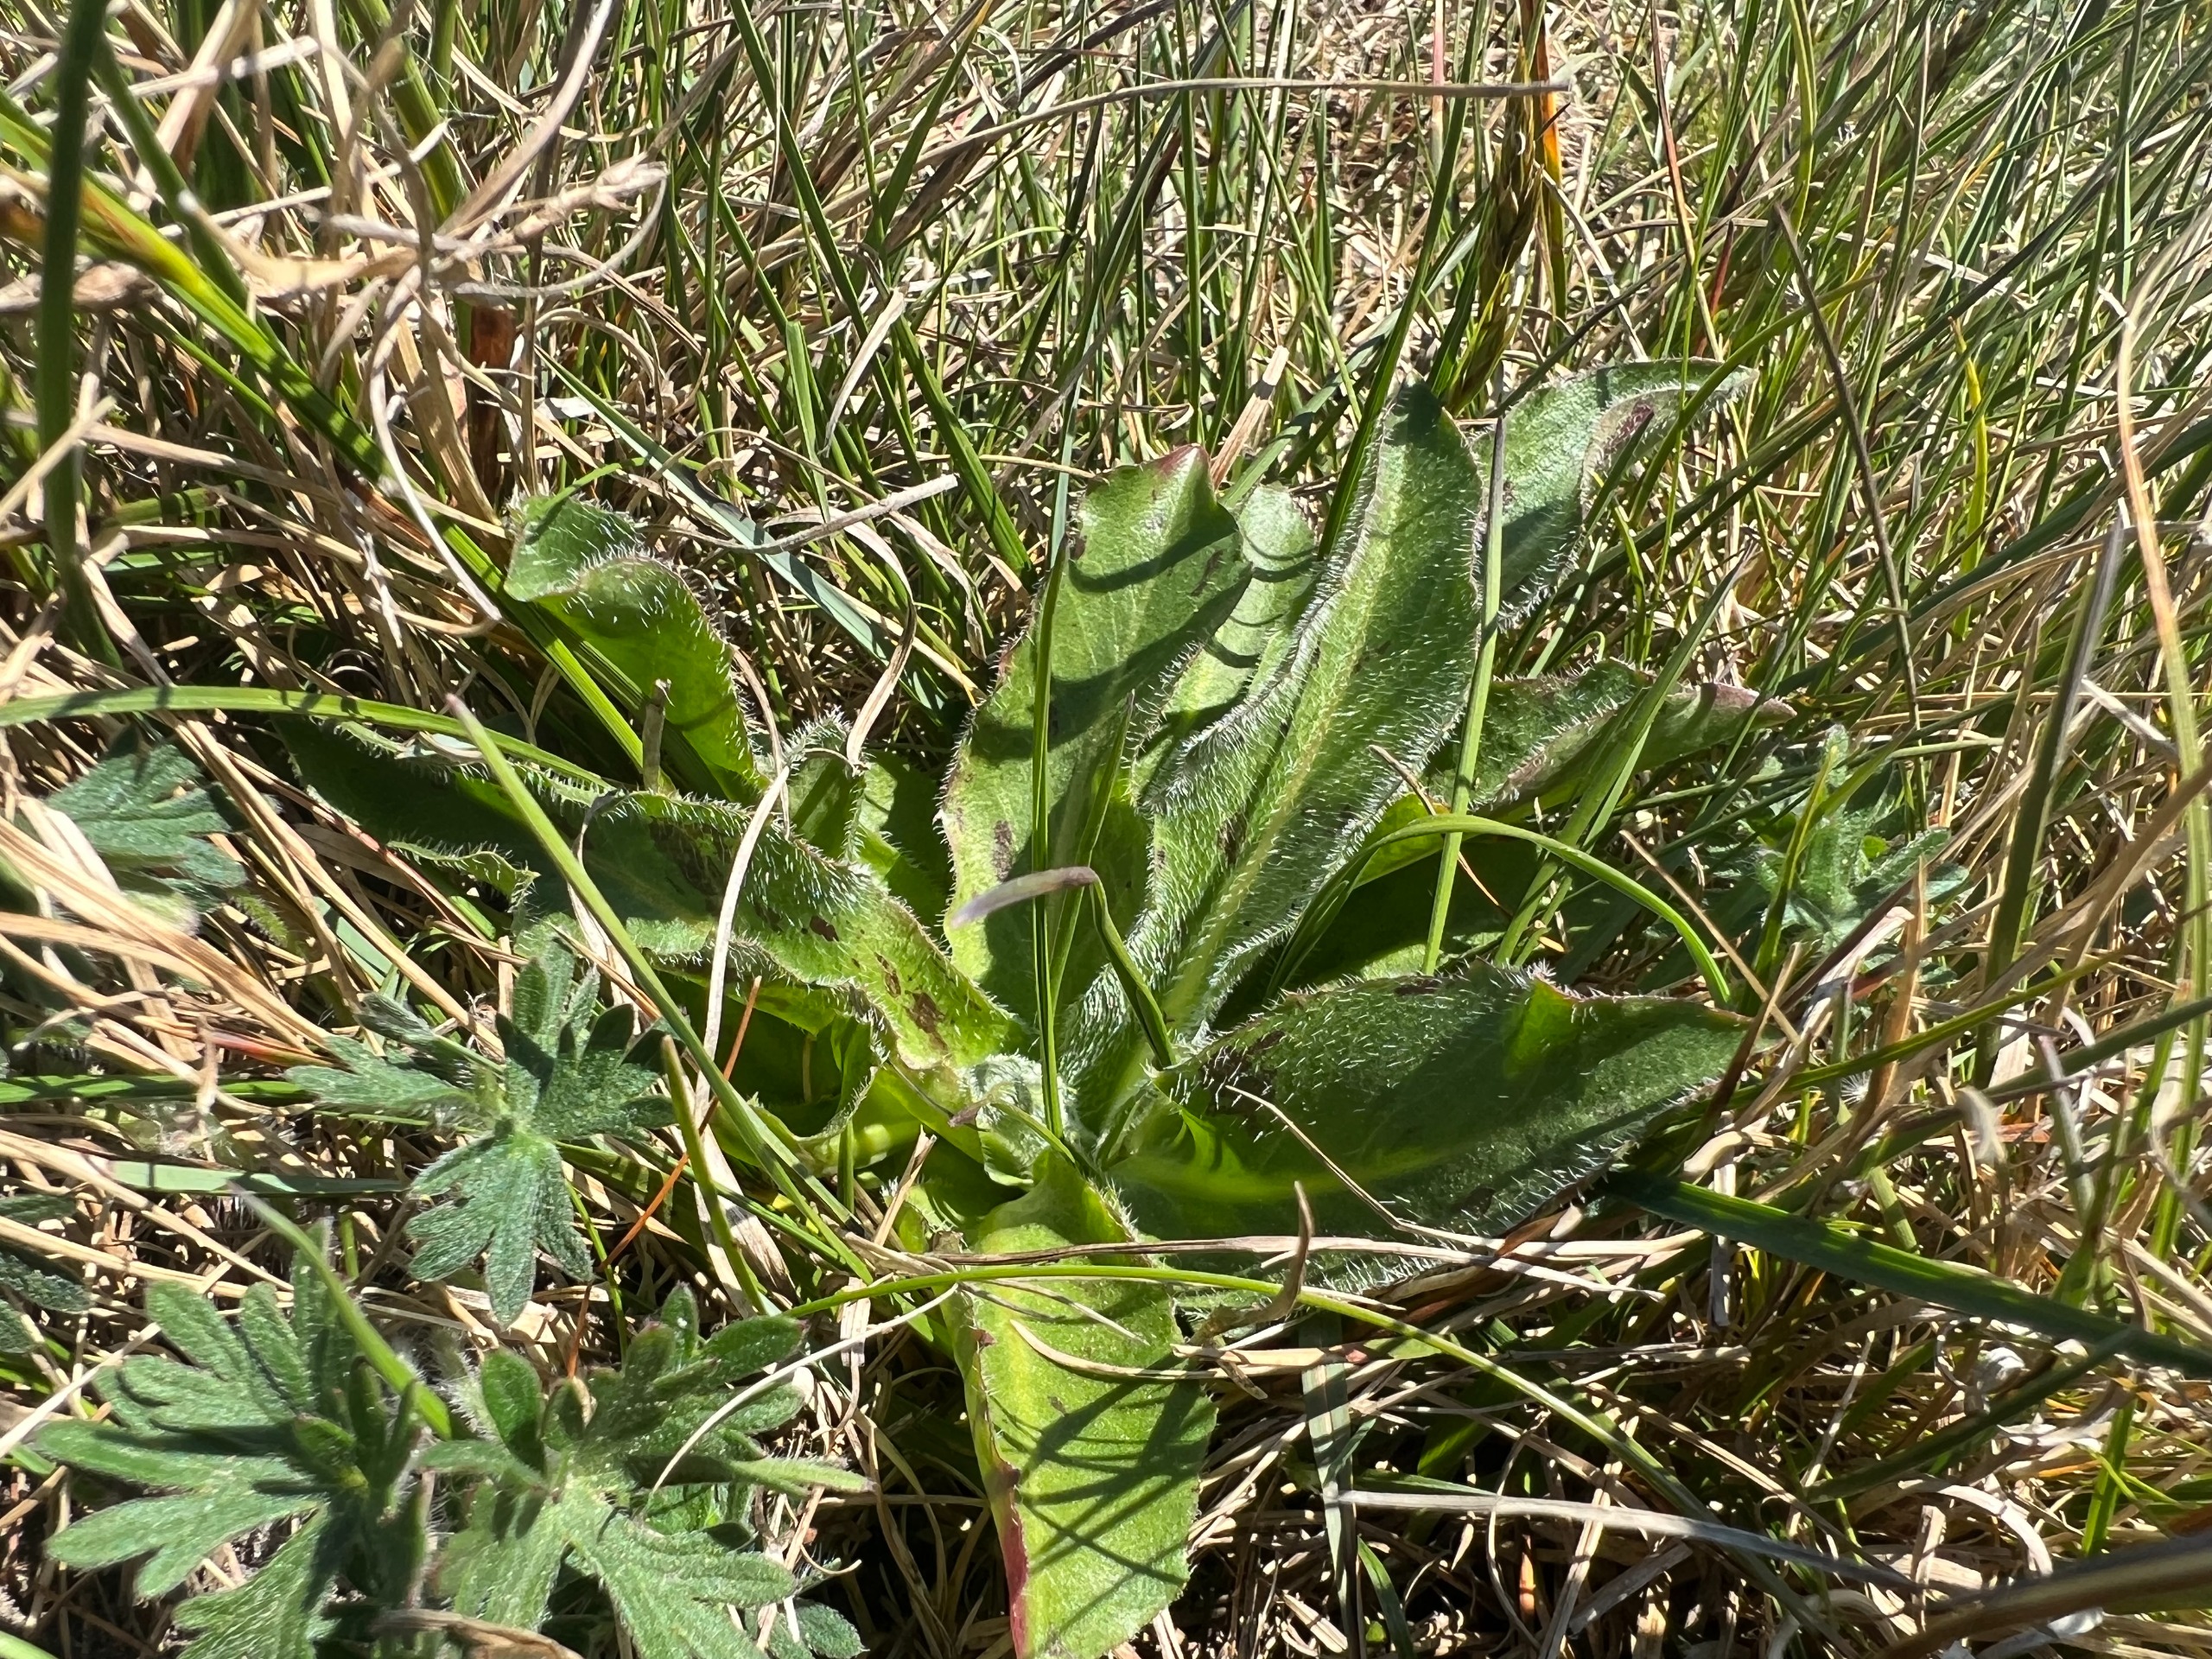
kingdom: Plantae
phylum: Tracheophyta
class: Magnoliopsida
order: Asterales
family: Asteraceae
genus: Trommsdorffia
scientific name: Trommsdorffia maculata
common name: Plettet kongepen
